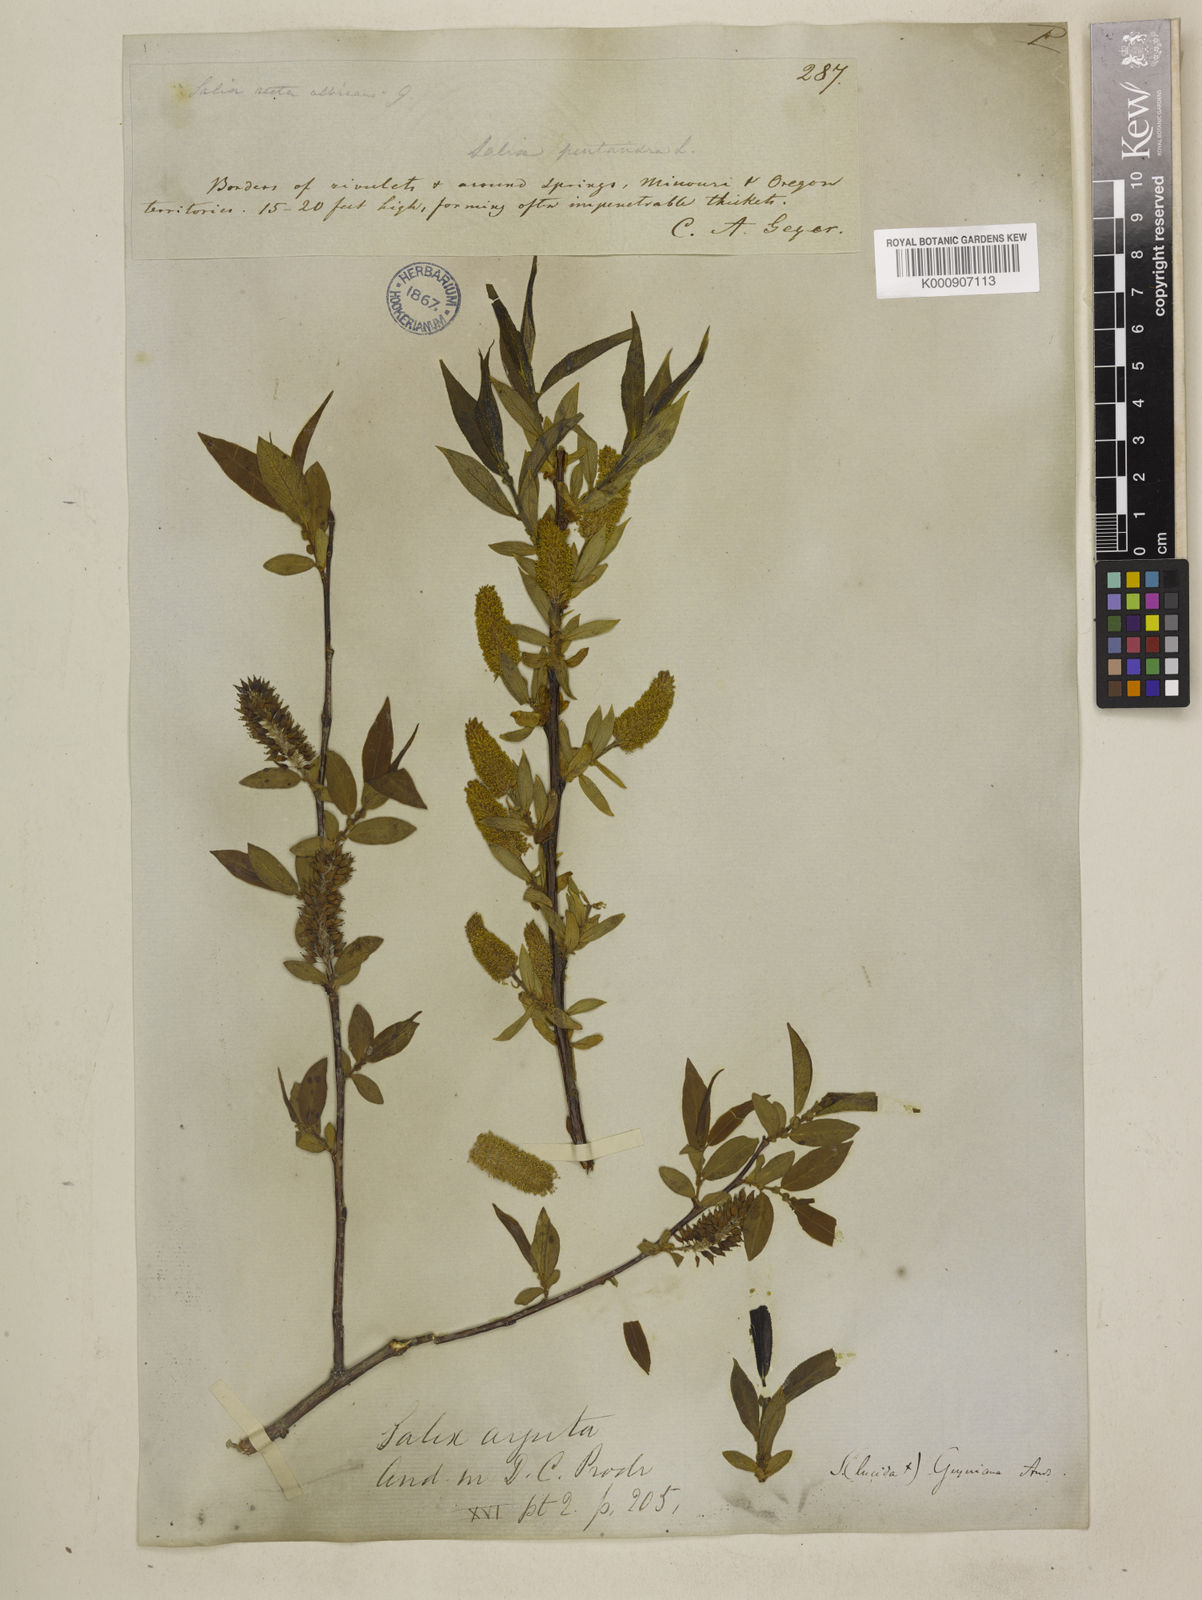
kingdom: Plantae
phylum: Tracheophyta
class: Magnoliopsida
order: Malpighiales
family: Salicaceae
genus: Salix
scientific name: Salix
